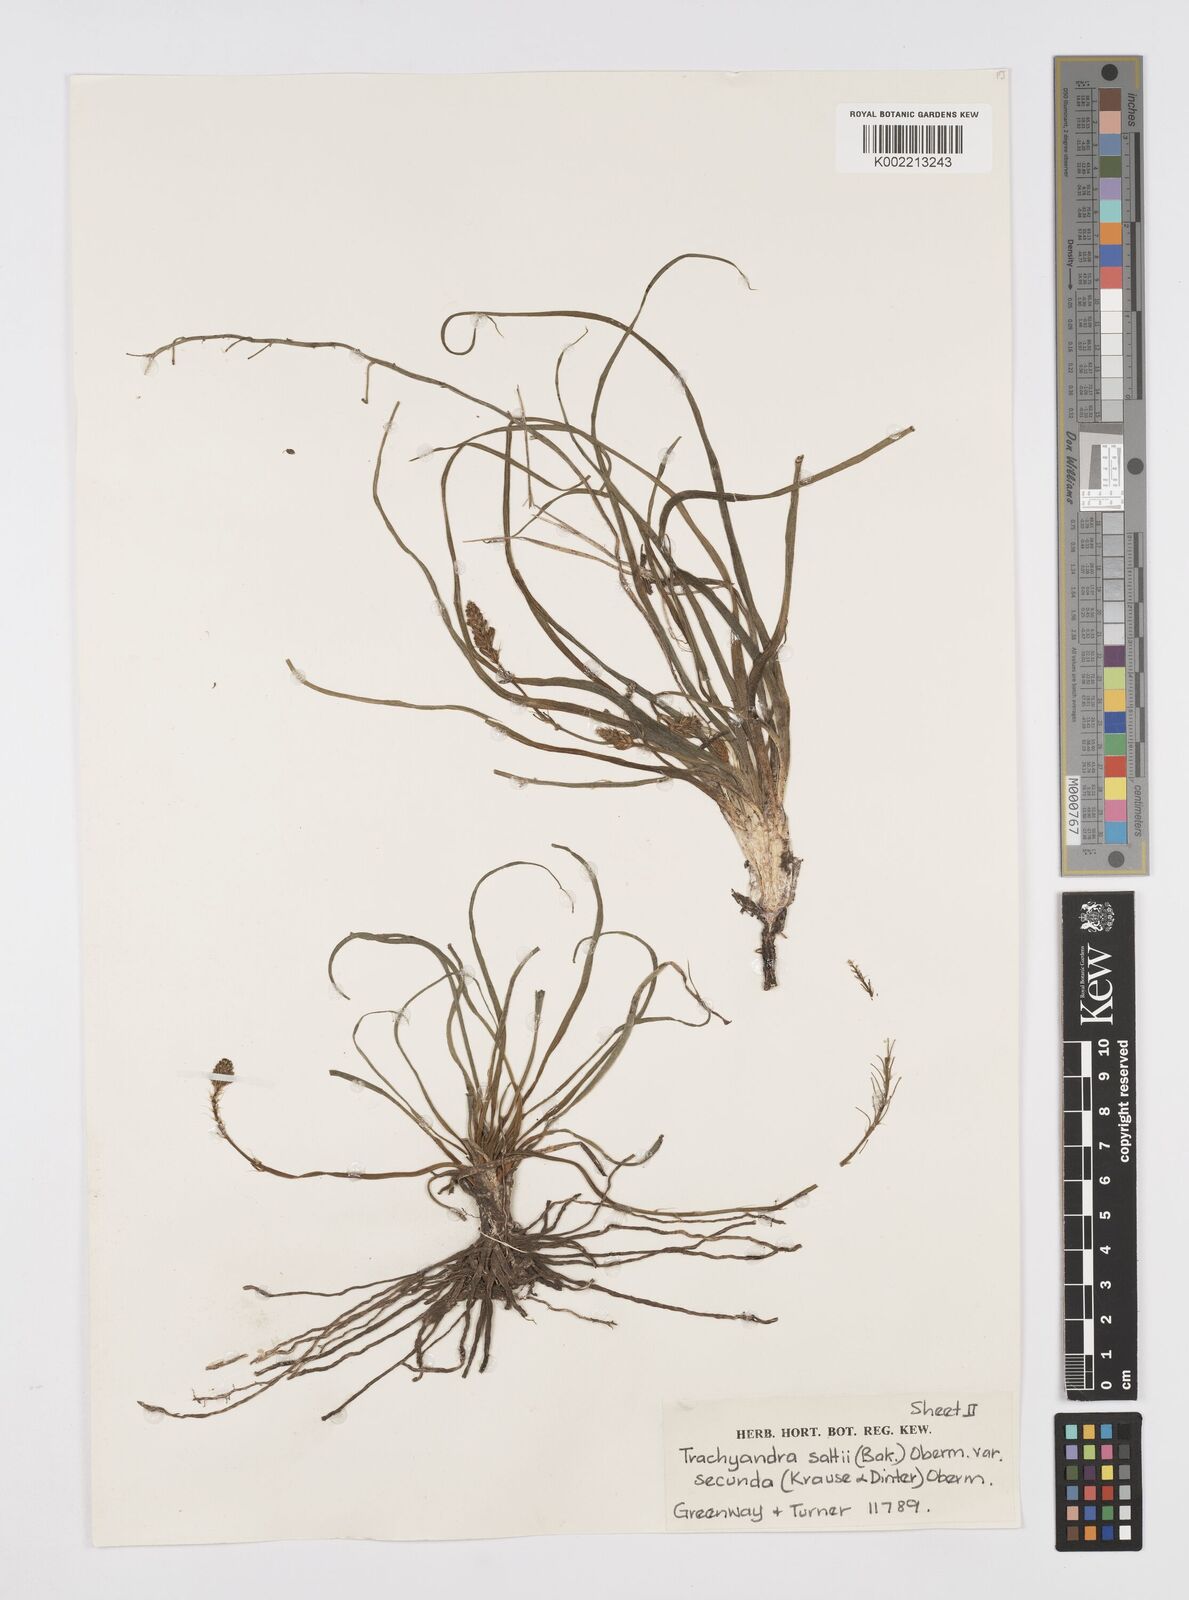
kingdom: Plantae
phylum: Tracheophyta
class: Liliopsida
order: Asparagales
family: Asphodelaceae
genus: Trachyandra
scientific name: Trachyandra saltii
